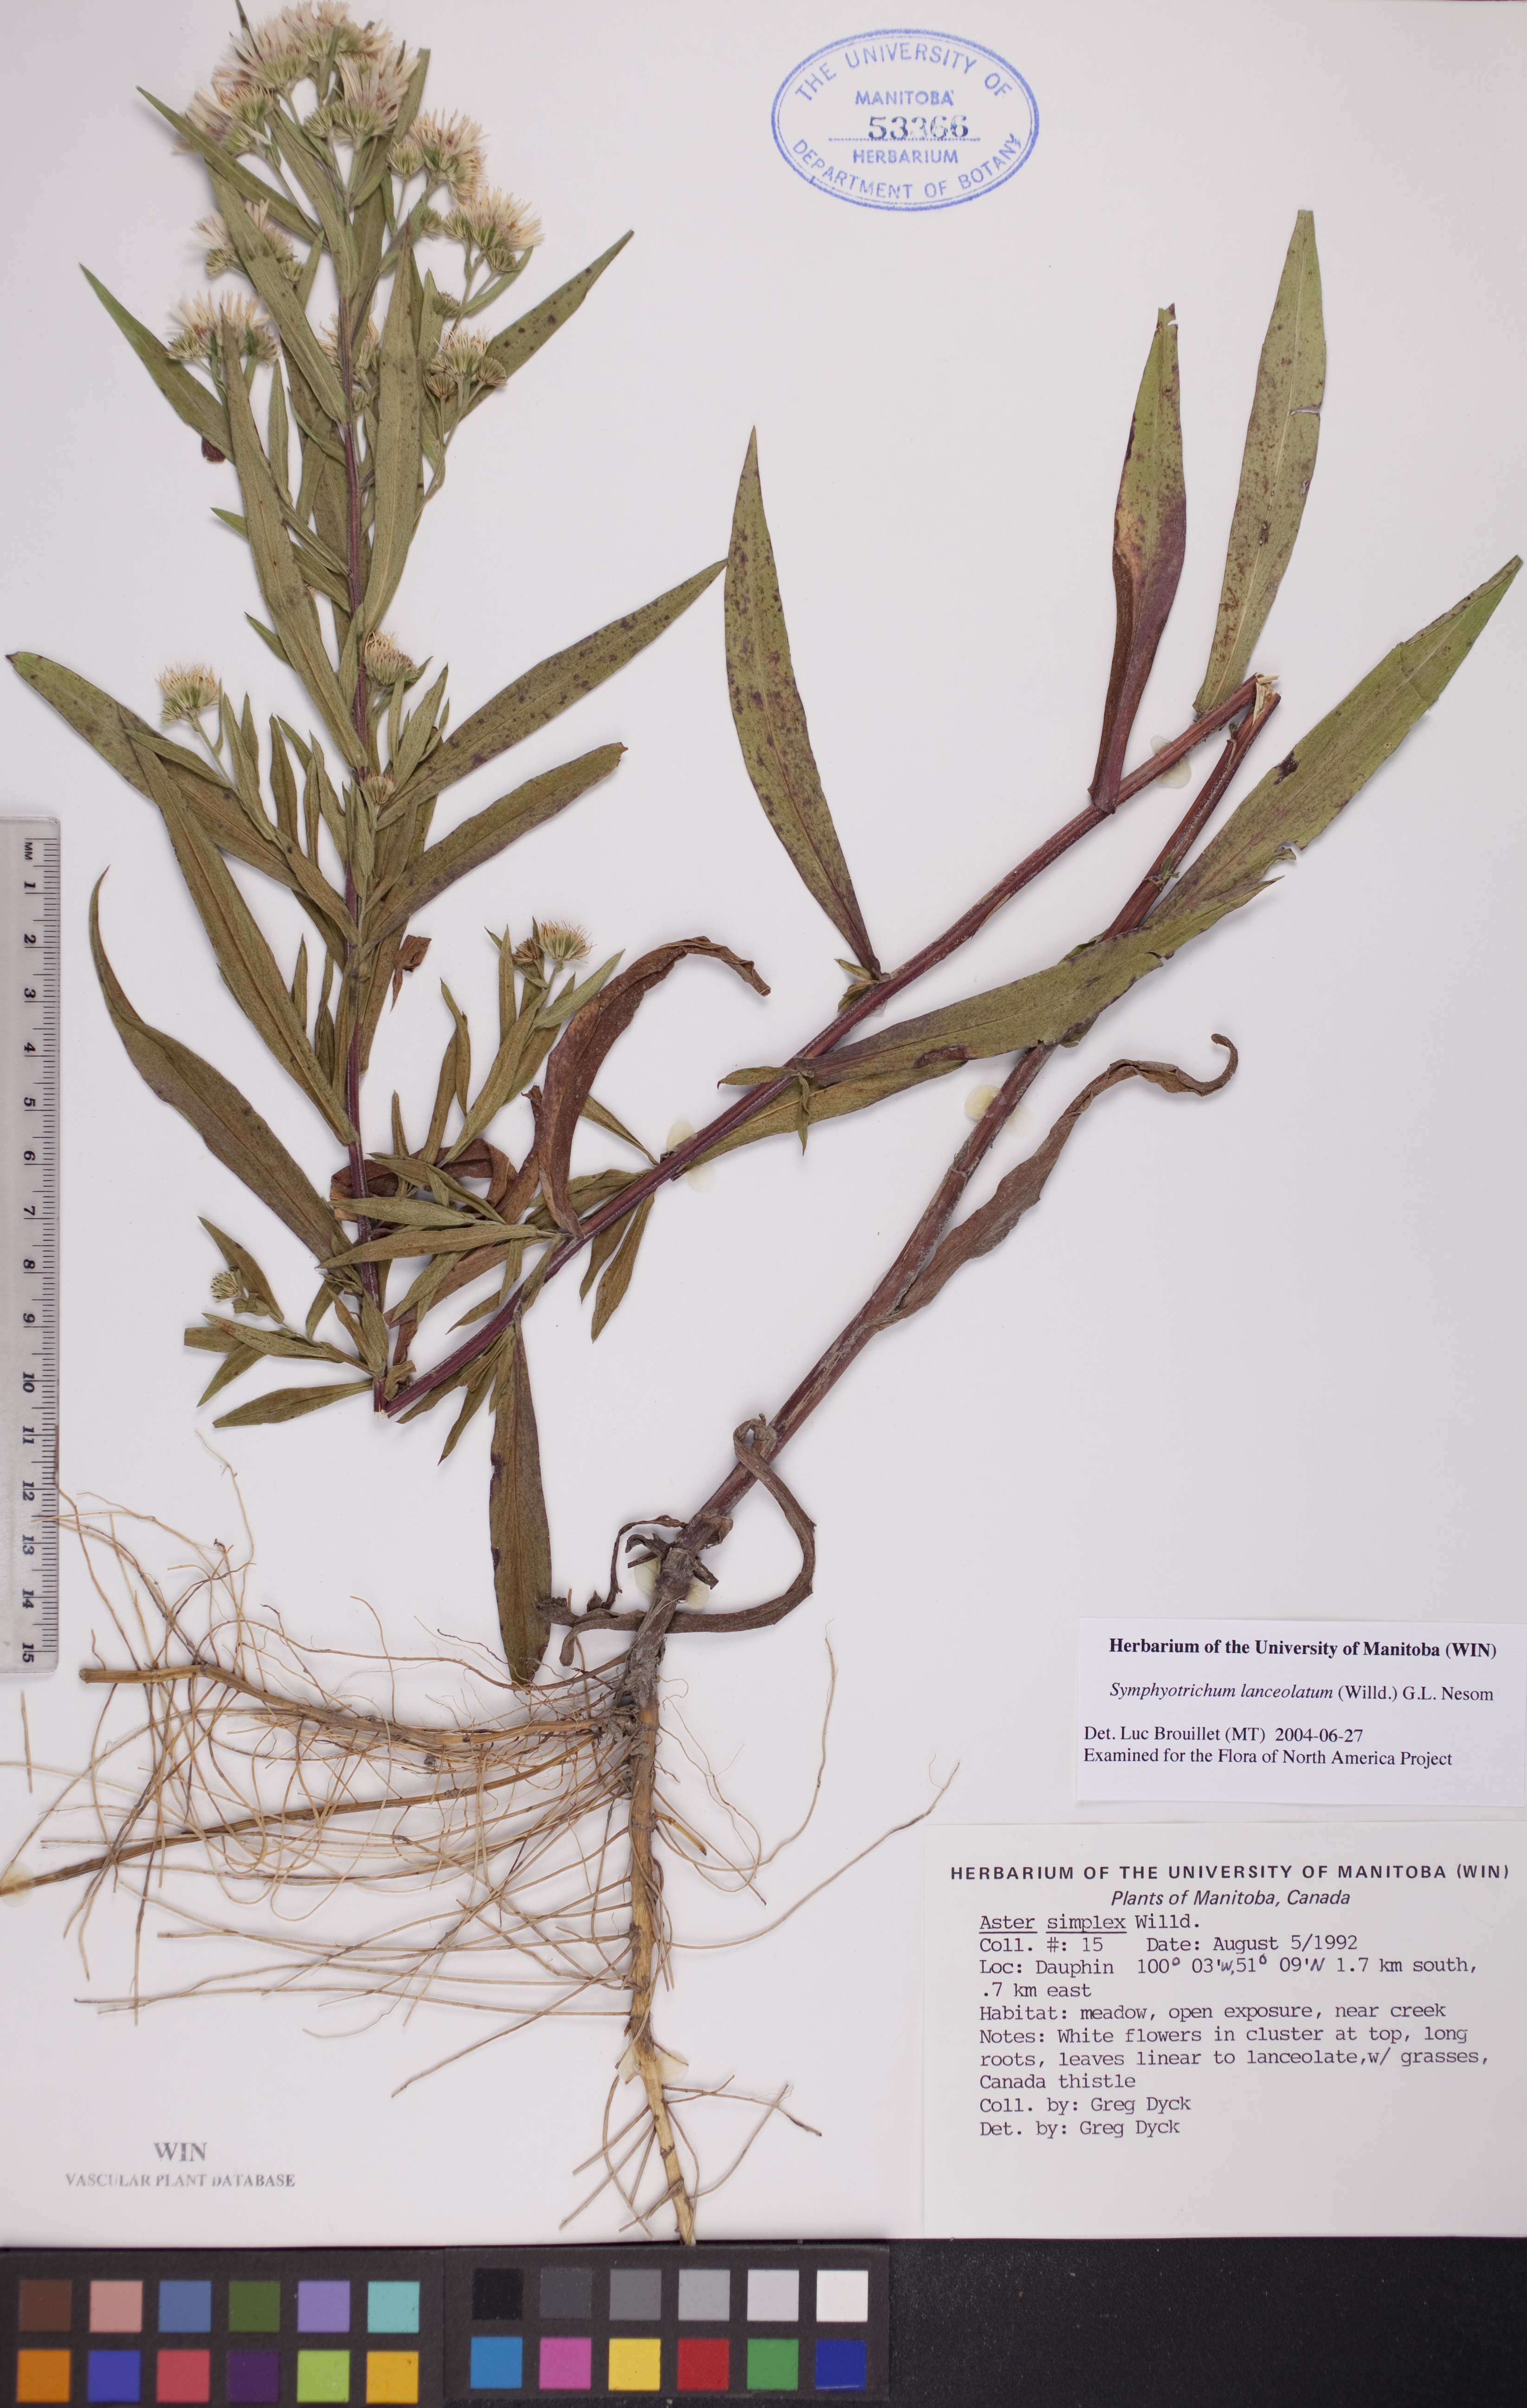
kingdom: Plantae
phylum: Tracheophyta
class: Magnoliopsida
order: Asterales
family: Asteraceae
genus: Symphyotrichum
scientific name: Symphyotrichum lanceolatum
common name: Panicled aster
